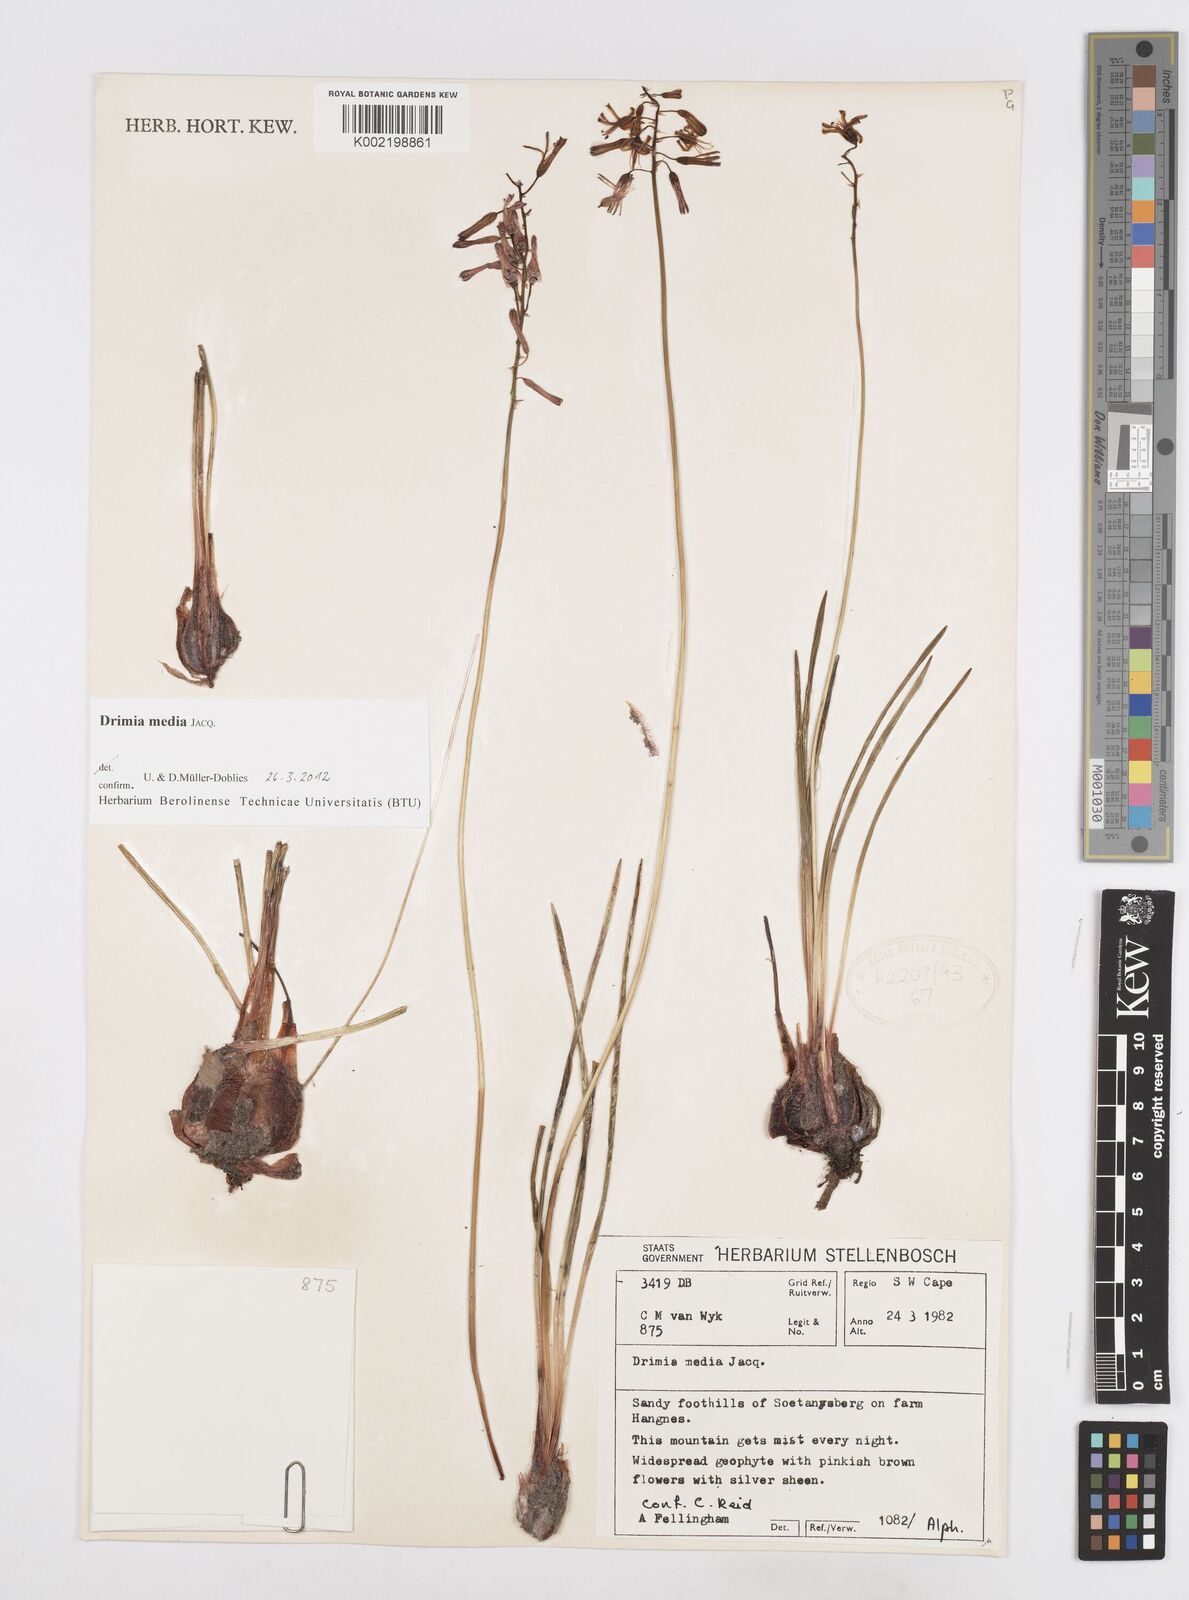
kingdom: Plantae
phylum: Tracheophyta
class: Liliopsida
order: Asparagales
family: Asparagaceae
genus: Drimia
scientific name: Drimia media
